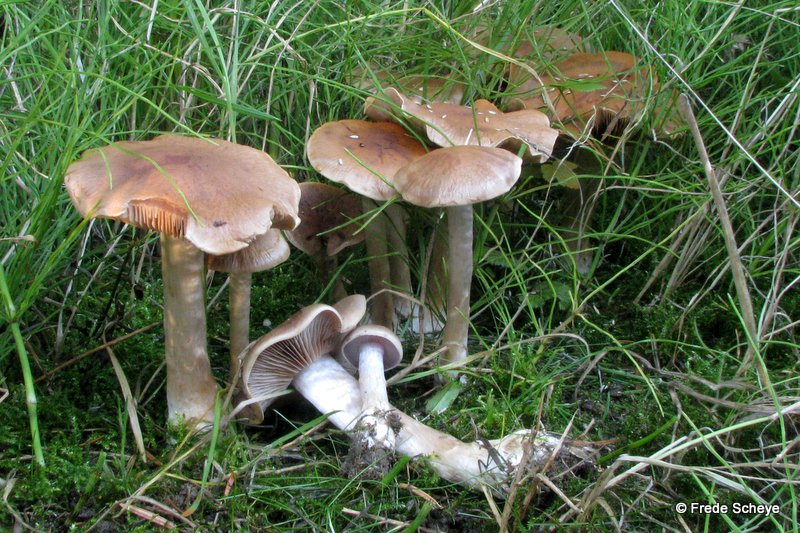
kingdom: Fungi
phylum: Basidiomycota
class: Agaricomycetes
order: Agaricales
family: Cortinariaceae
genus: Cortinarius
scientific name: Cortinarius caninus
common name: gran-slørhat
